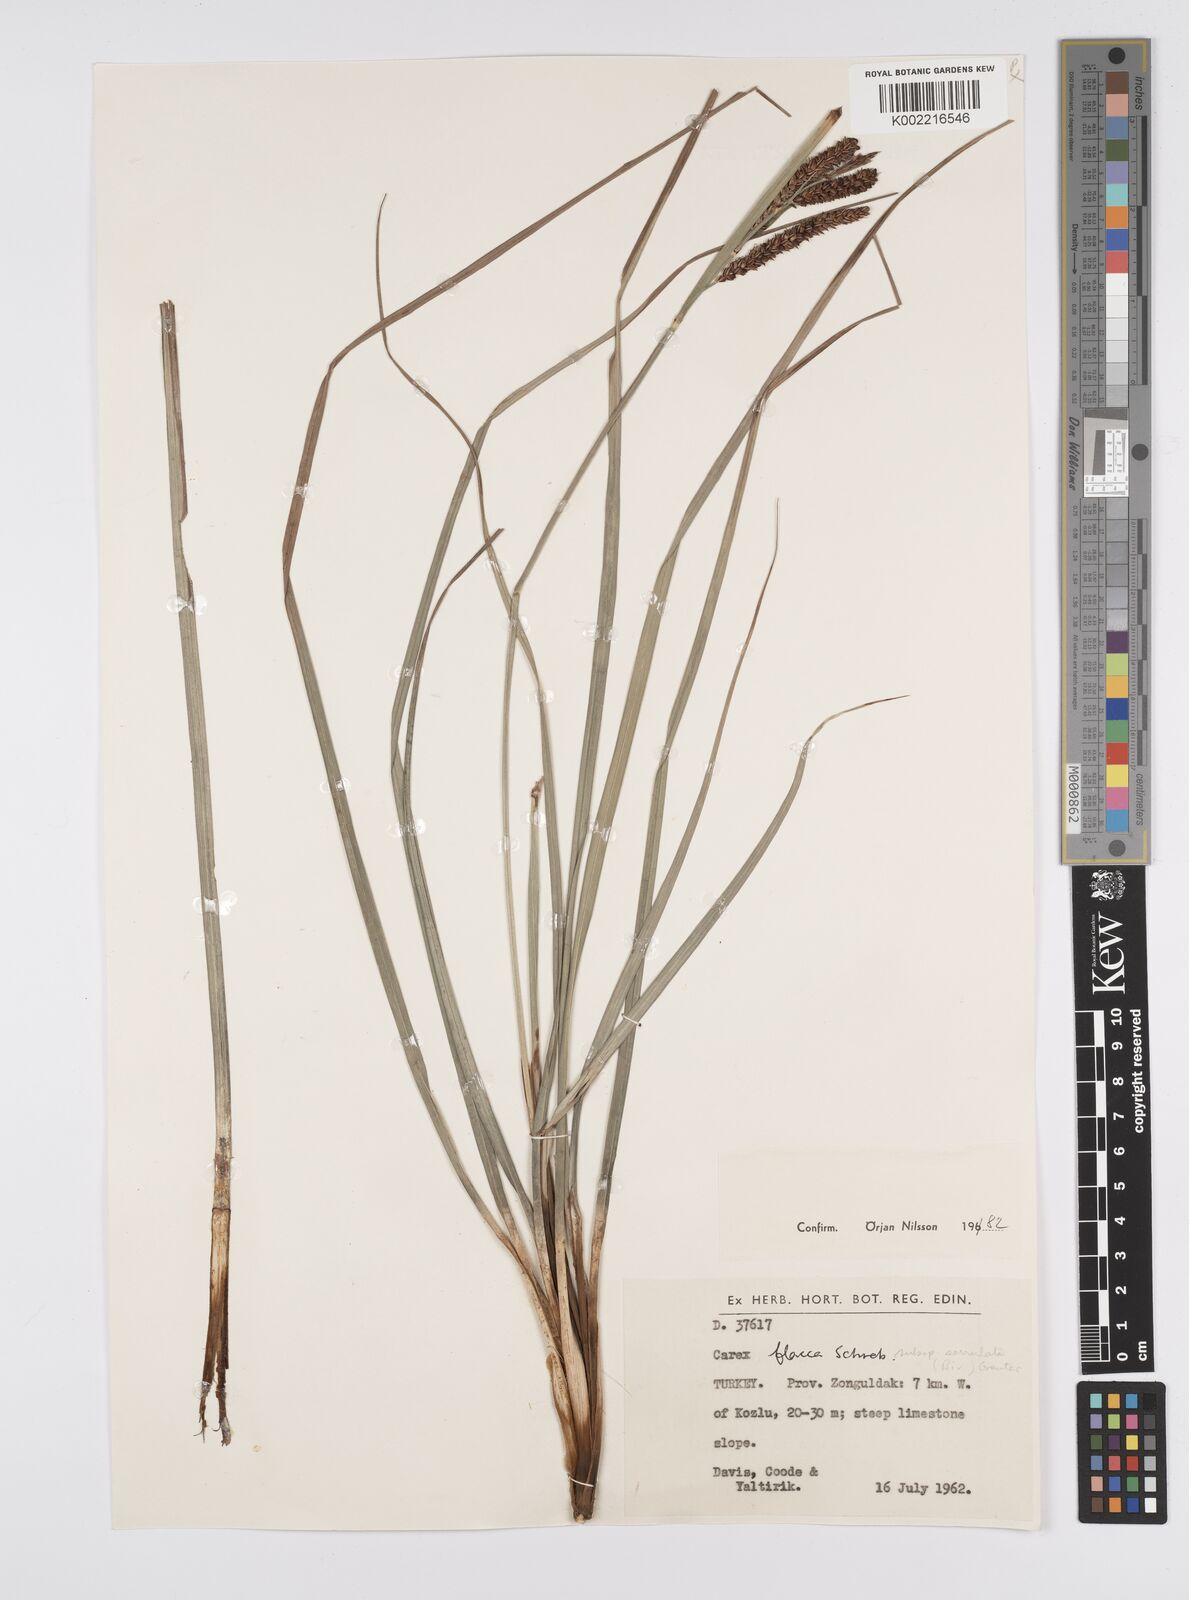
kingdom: Plantae
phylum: Tracheophyta
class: Liliopsida
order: Poales
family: Cyperaceae
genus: Carex
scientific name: Carex flacca
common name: Glaucous sedge
